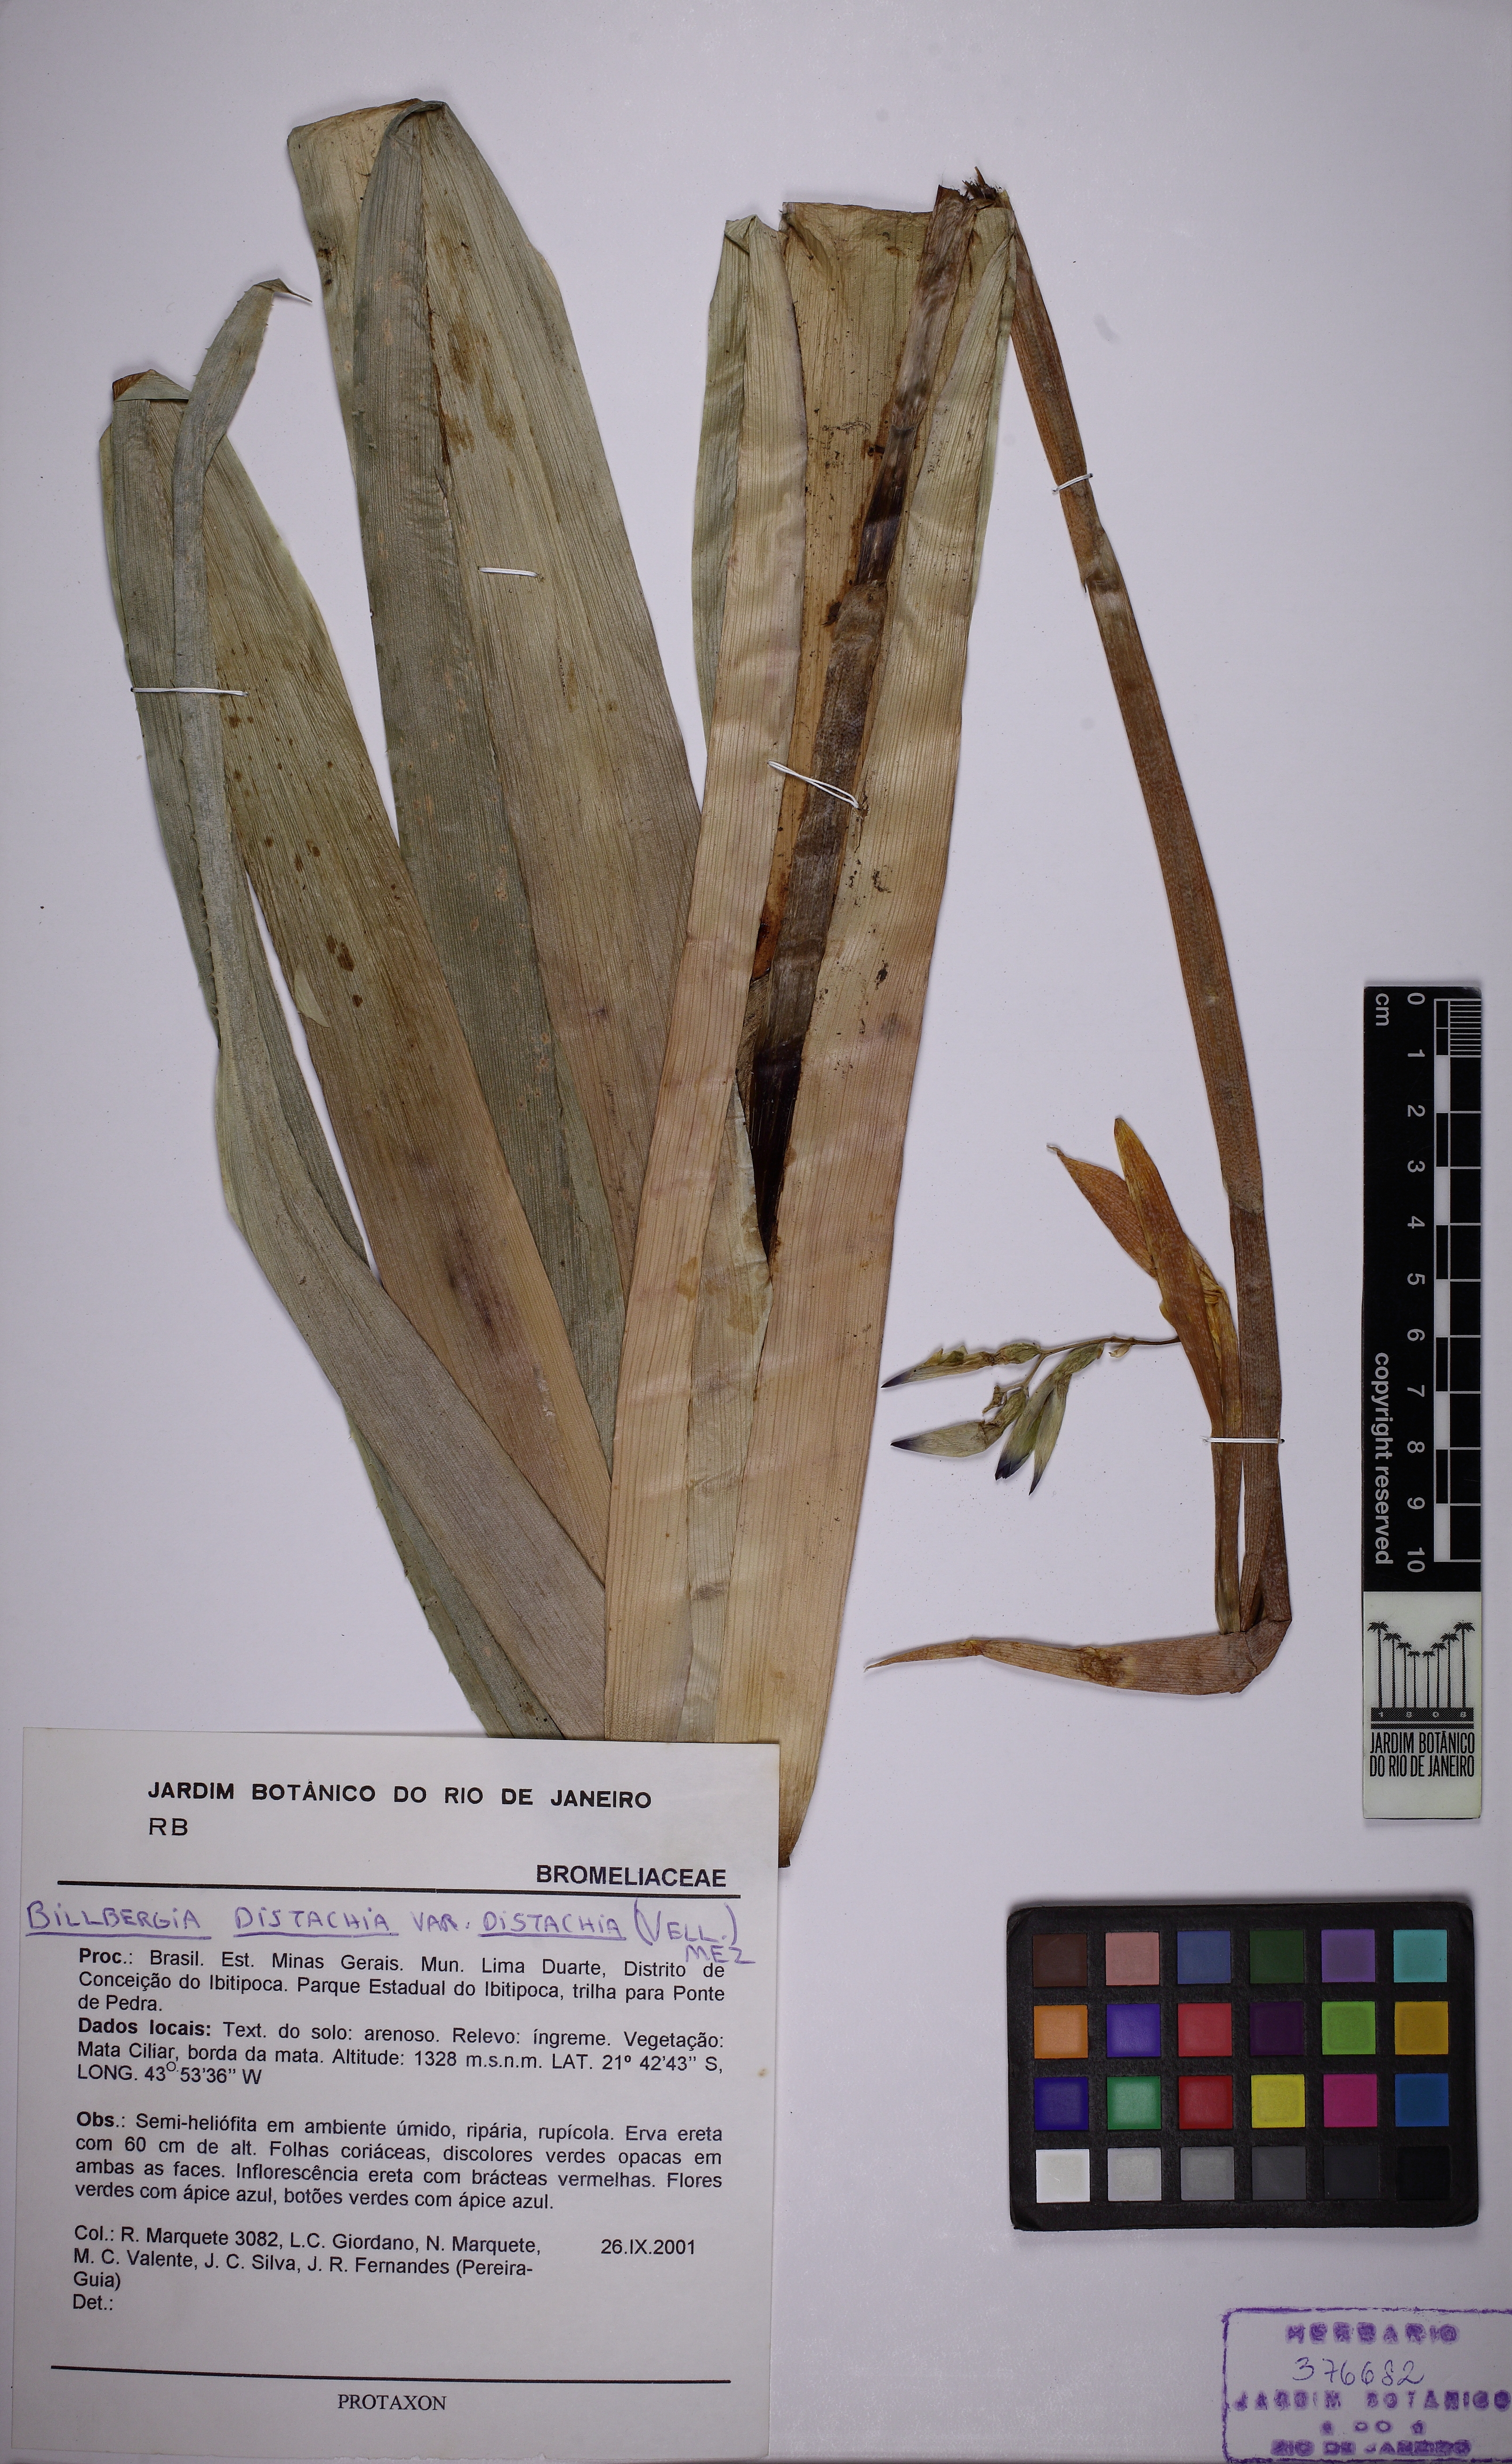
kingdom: Plantae
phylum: Tracheophyta
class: Liliopsida
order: Poales
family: Bromeliaceae
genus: Billbergia
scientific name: Billbergia distachia
